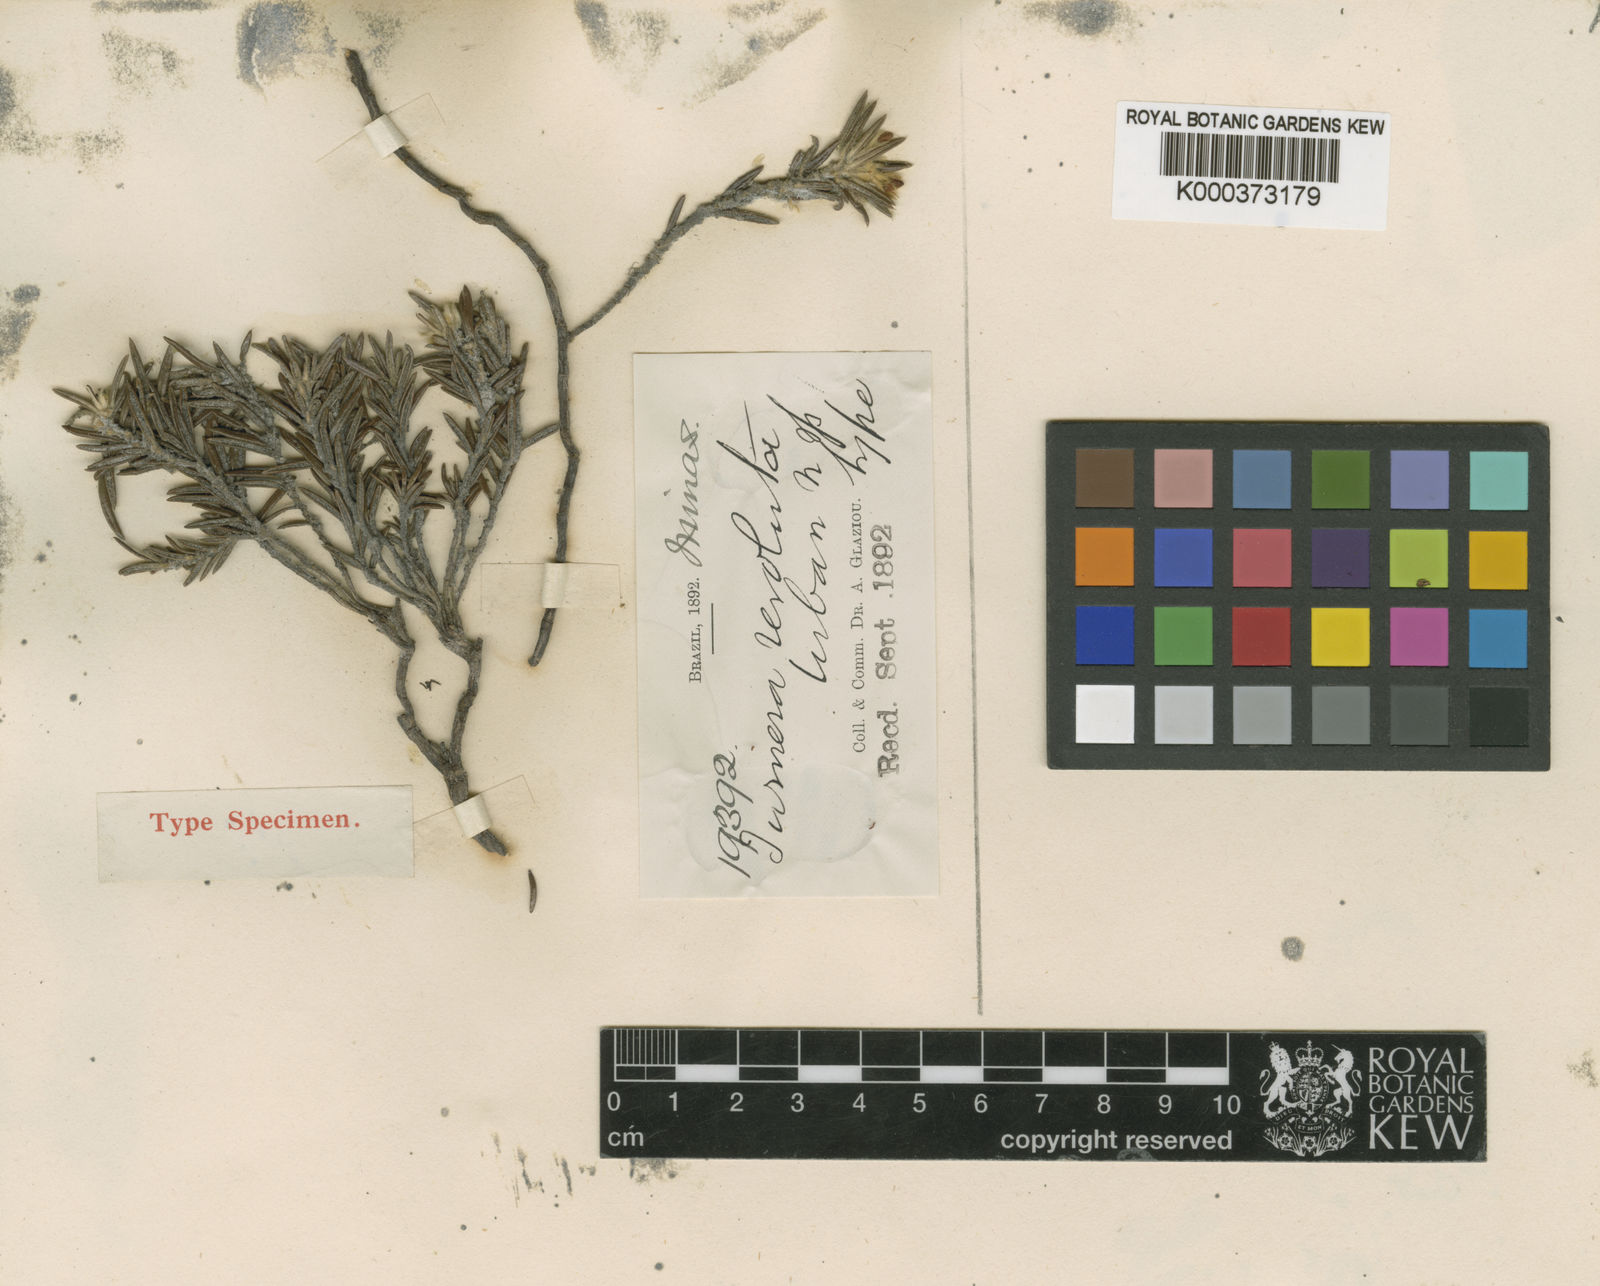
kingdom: Plantae
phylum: Tracheophyta
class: Magnoliopsida
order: Malpighiales
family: Turneraceae
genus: Turnera
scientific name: Turnera revoluta
